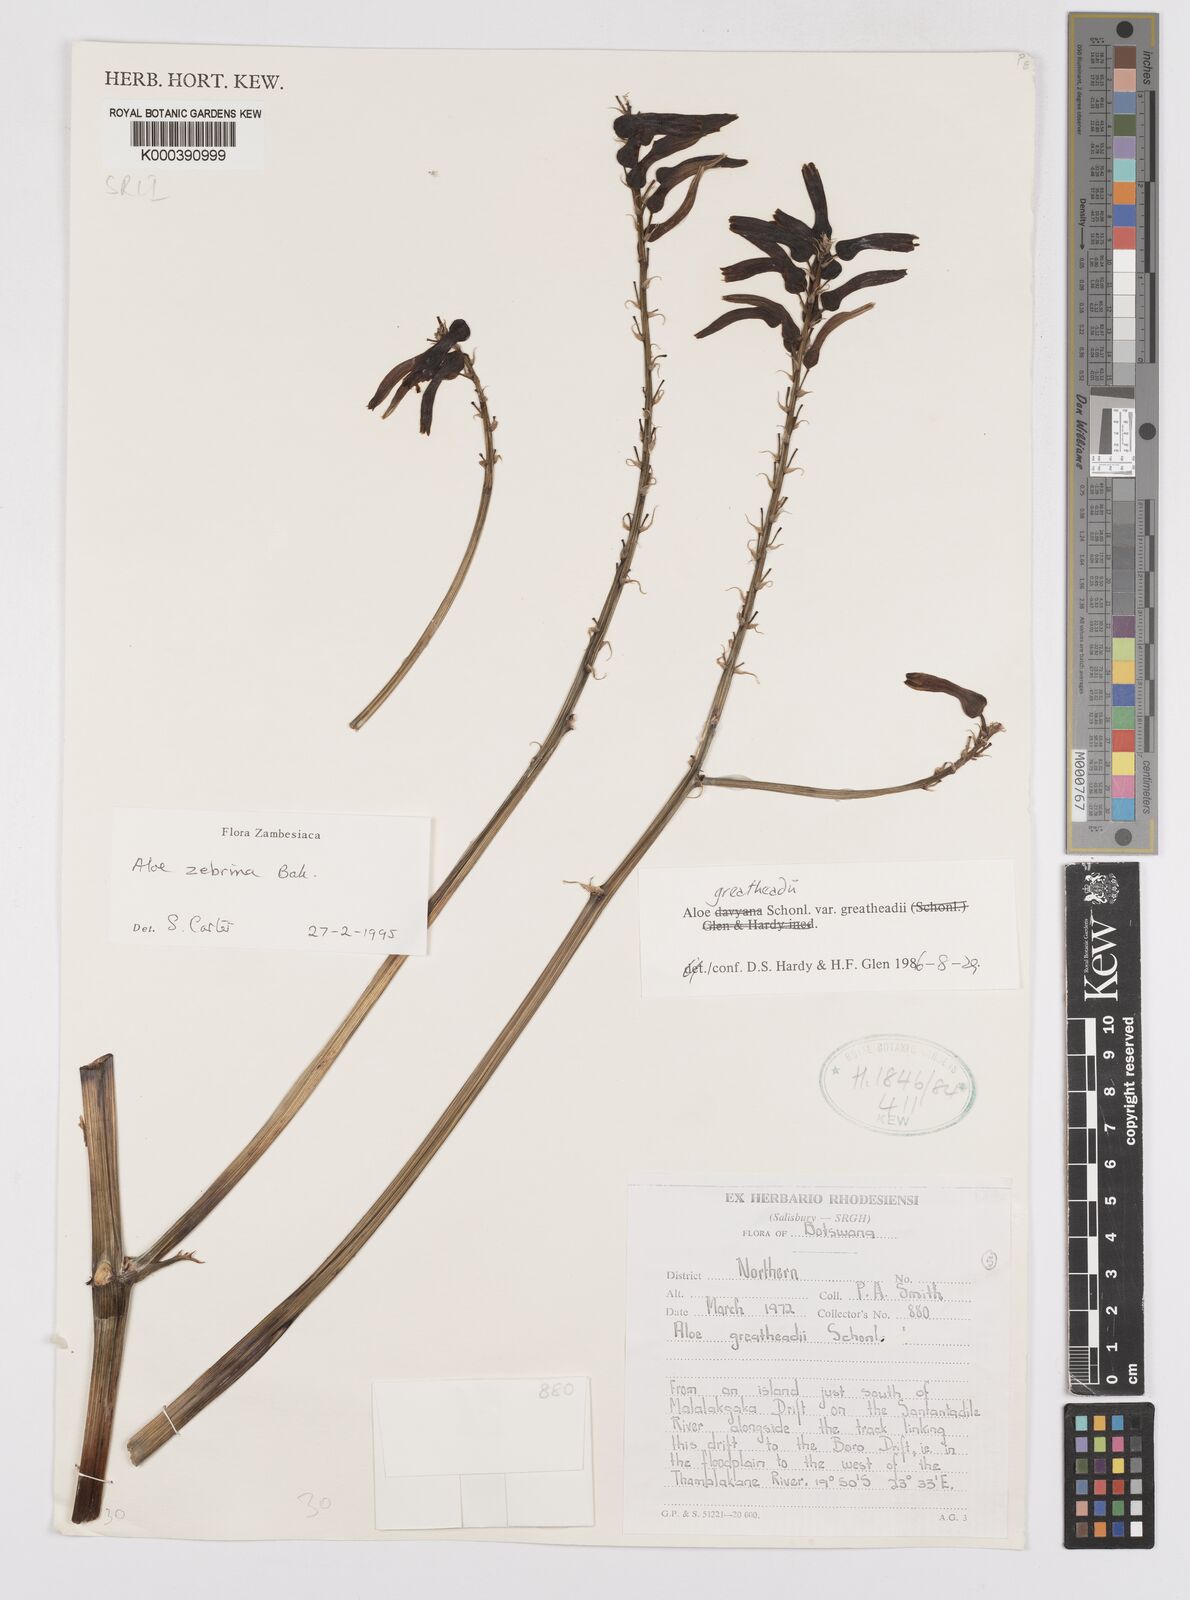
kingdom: Plantae
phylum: Tracheophyta
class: Liliopsida
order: Asparagales
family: Asphodelaceae
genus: Aloe
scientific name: Aloe zebrina
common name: Zebra-leaf aloe
